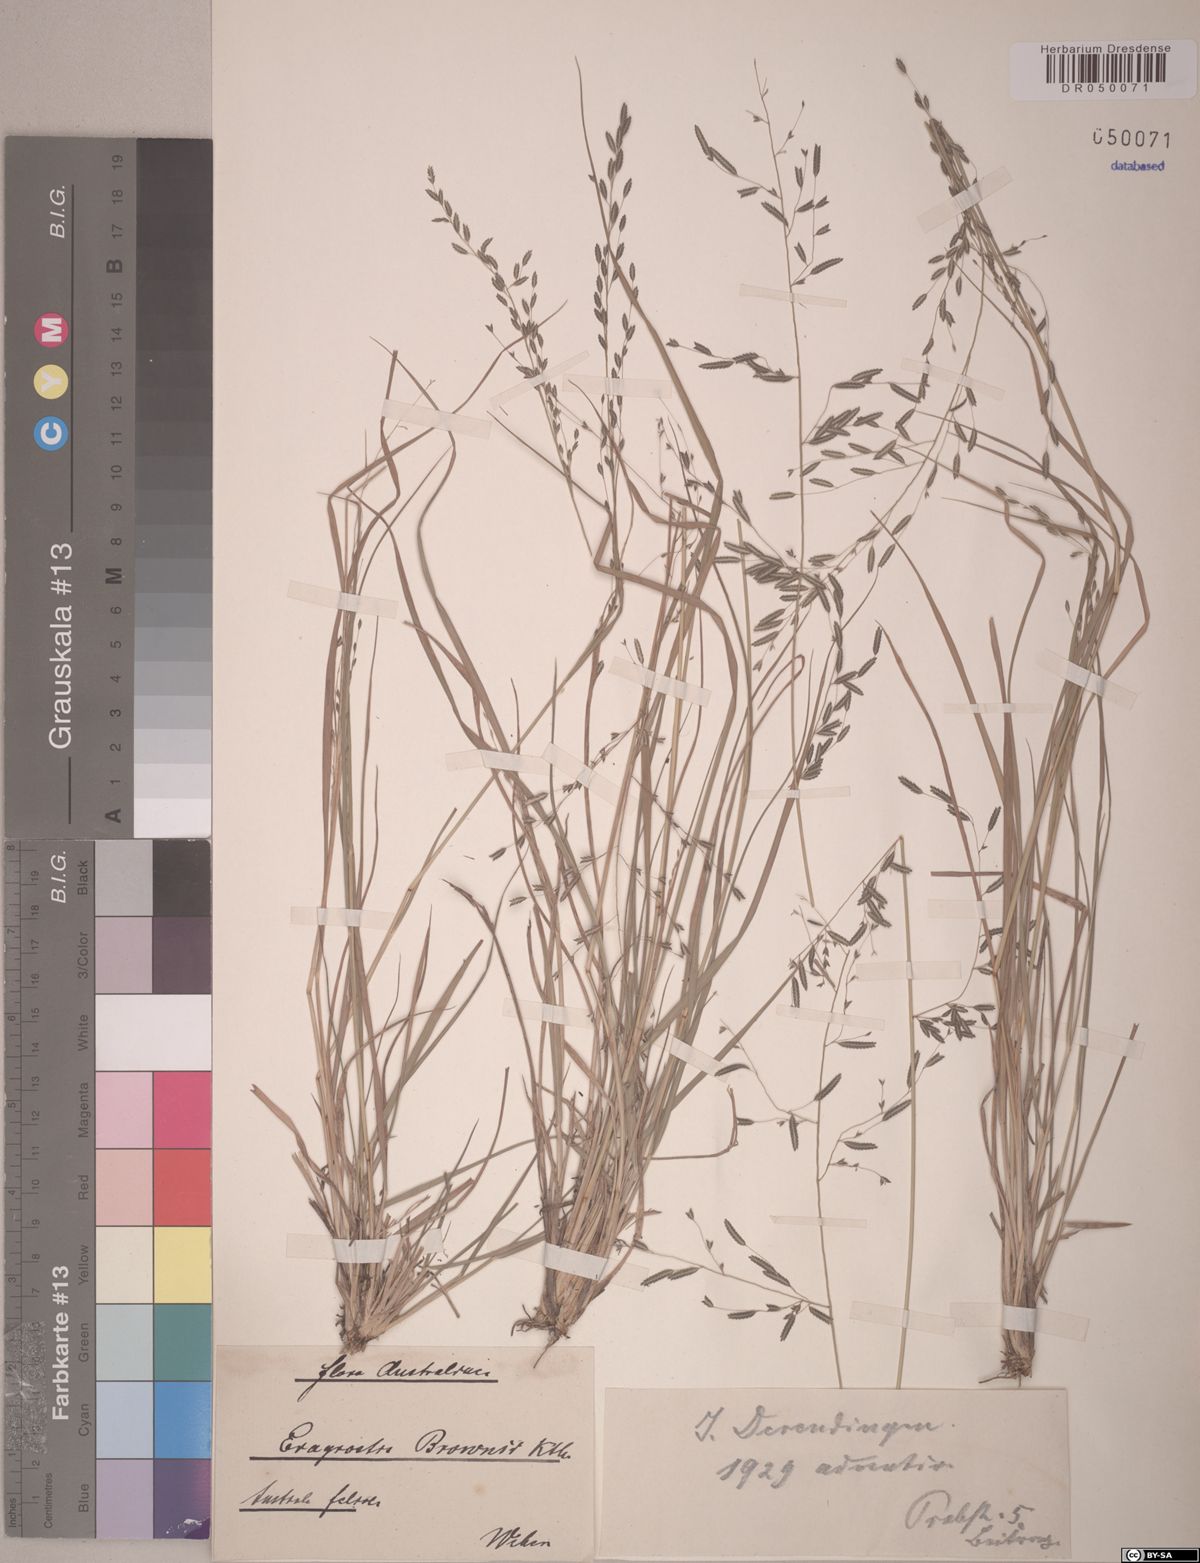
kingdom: Plantae
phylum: Tracheophyta
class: Liliopsida
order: Poales
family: Poaceae
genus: Eragrostis
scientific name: Eragrostis brownii
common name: Lovegrass
